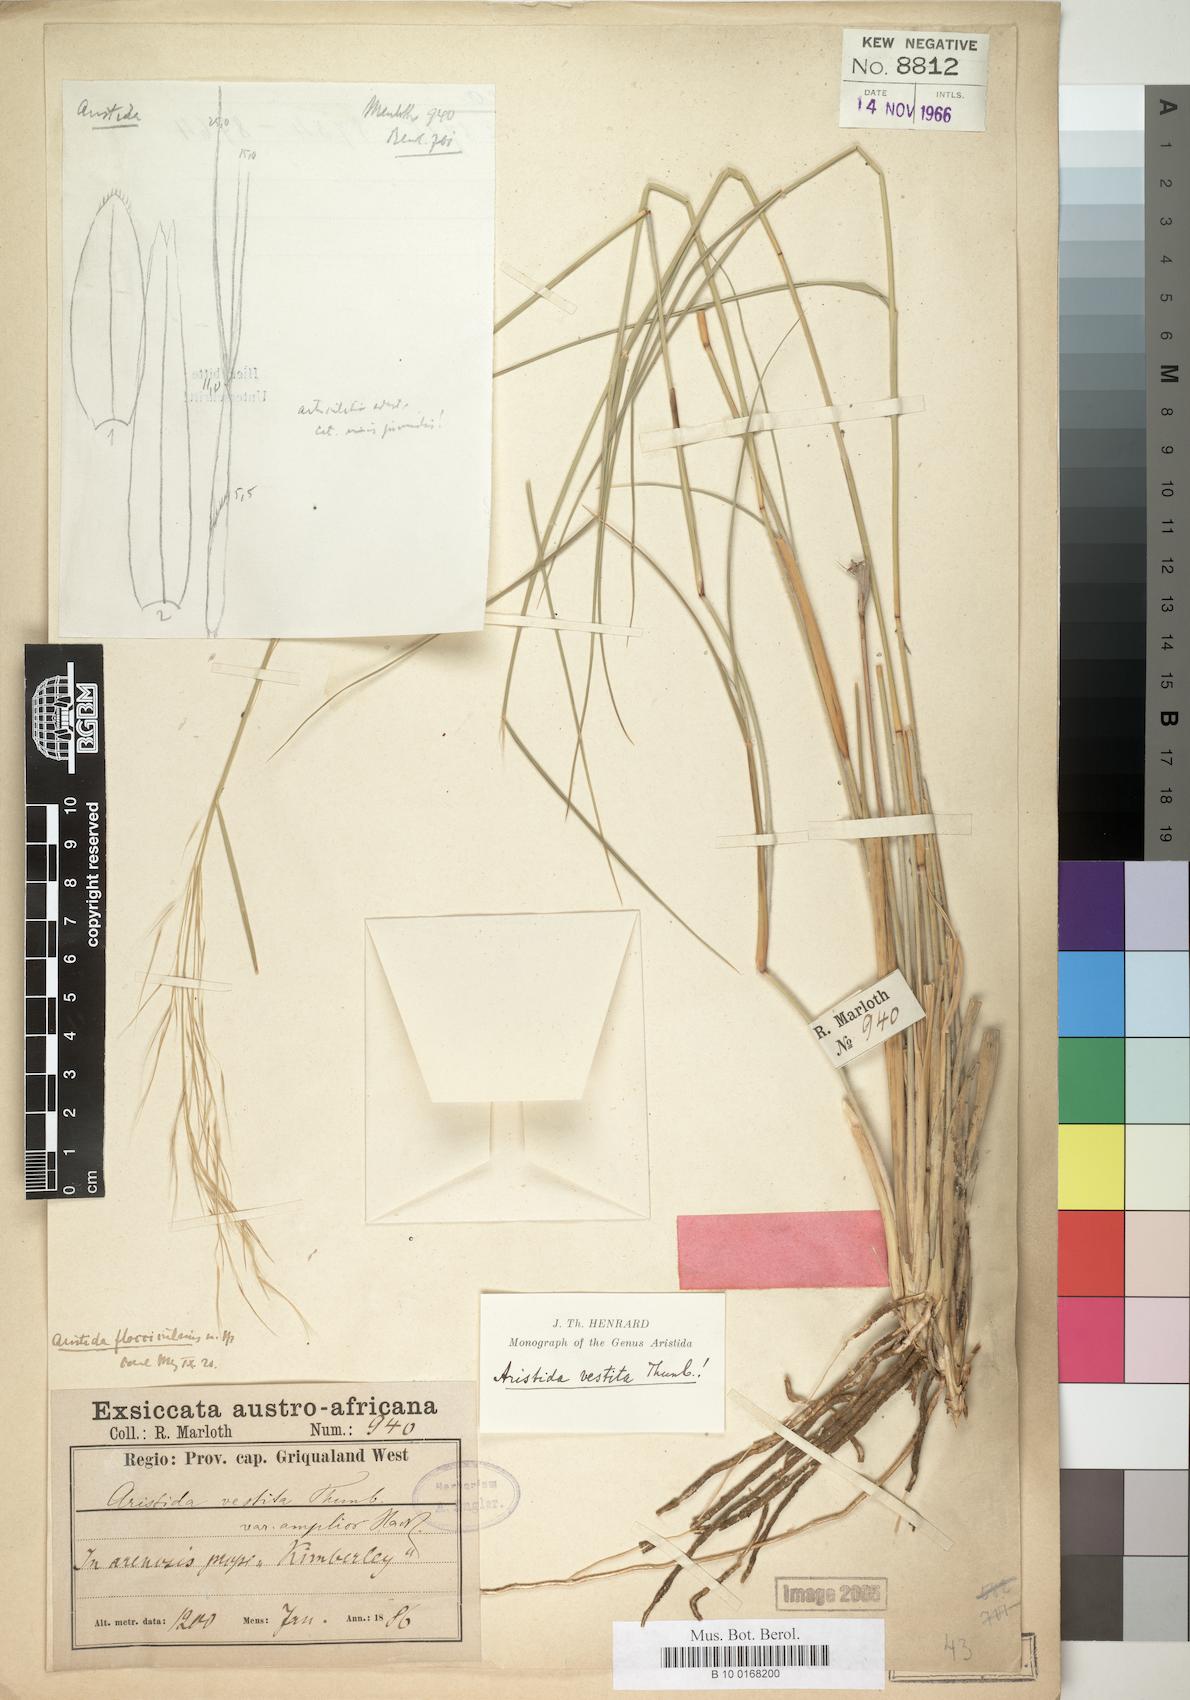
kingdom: Plantae
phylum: Tracheophyta
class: Liliopsida
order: Poales
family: Poaceae
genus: Aristida
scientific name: Aristida vestita
